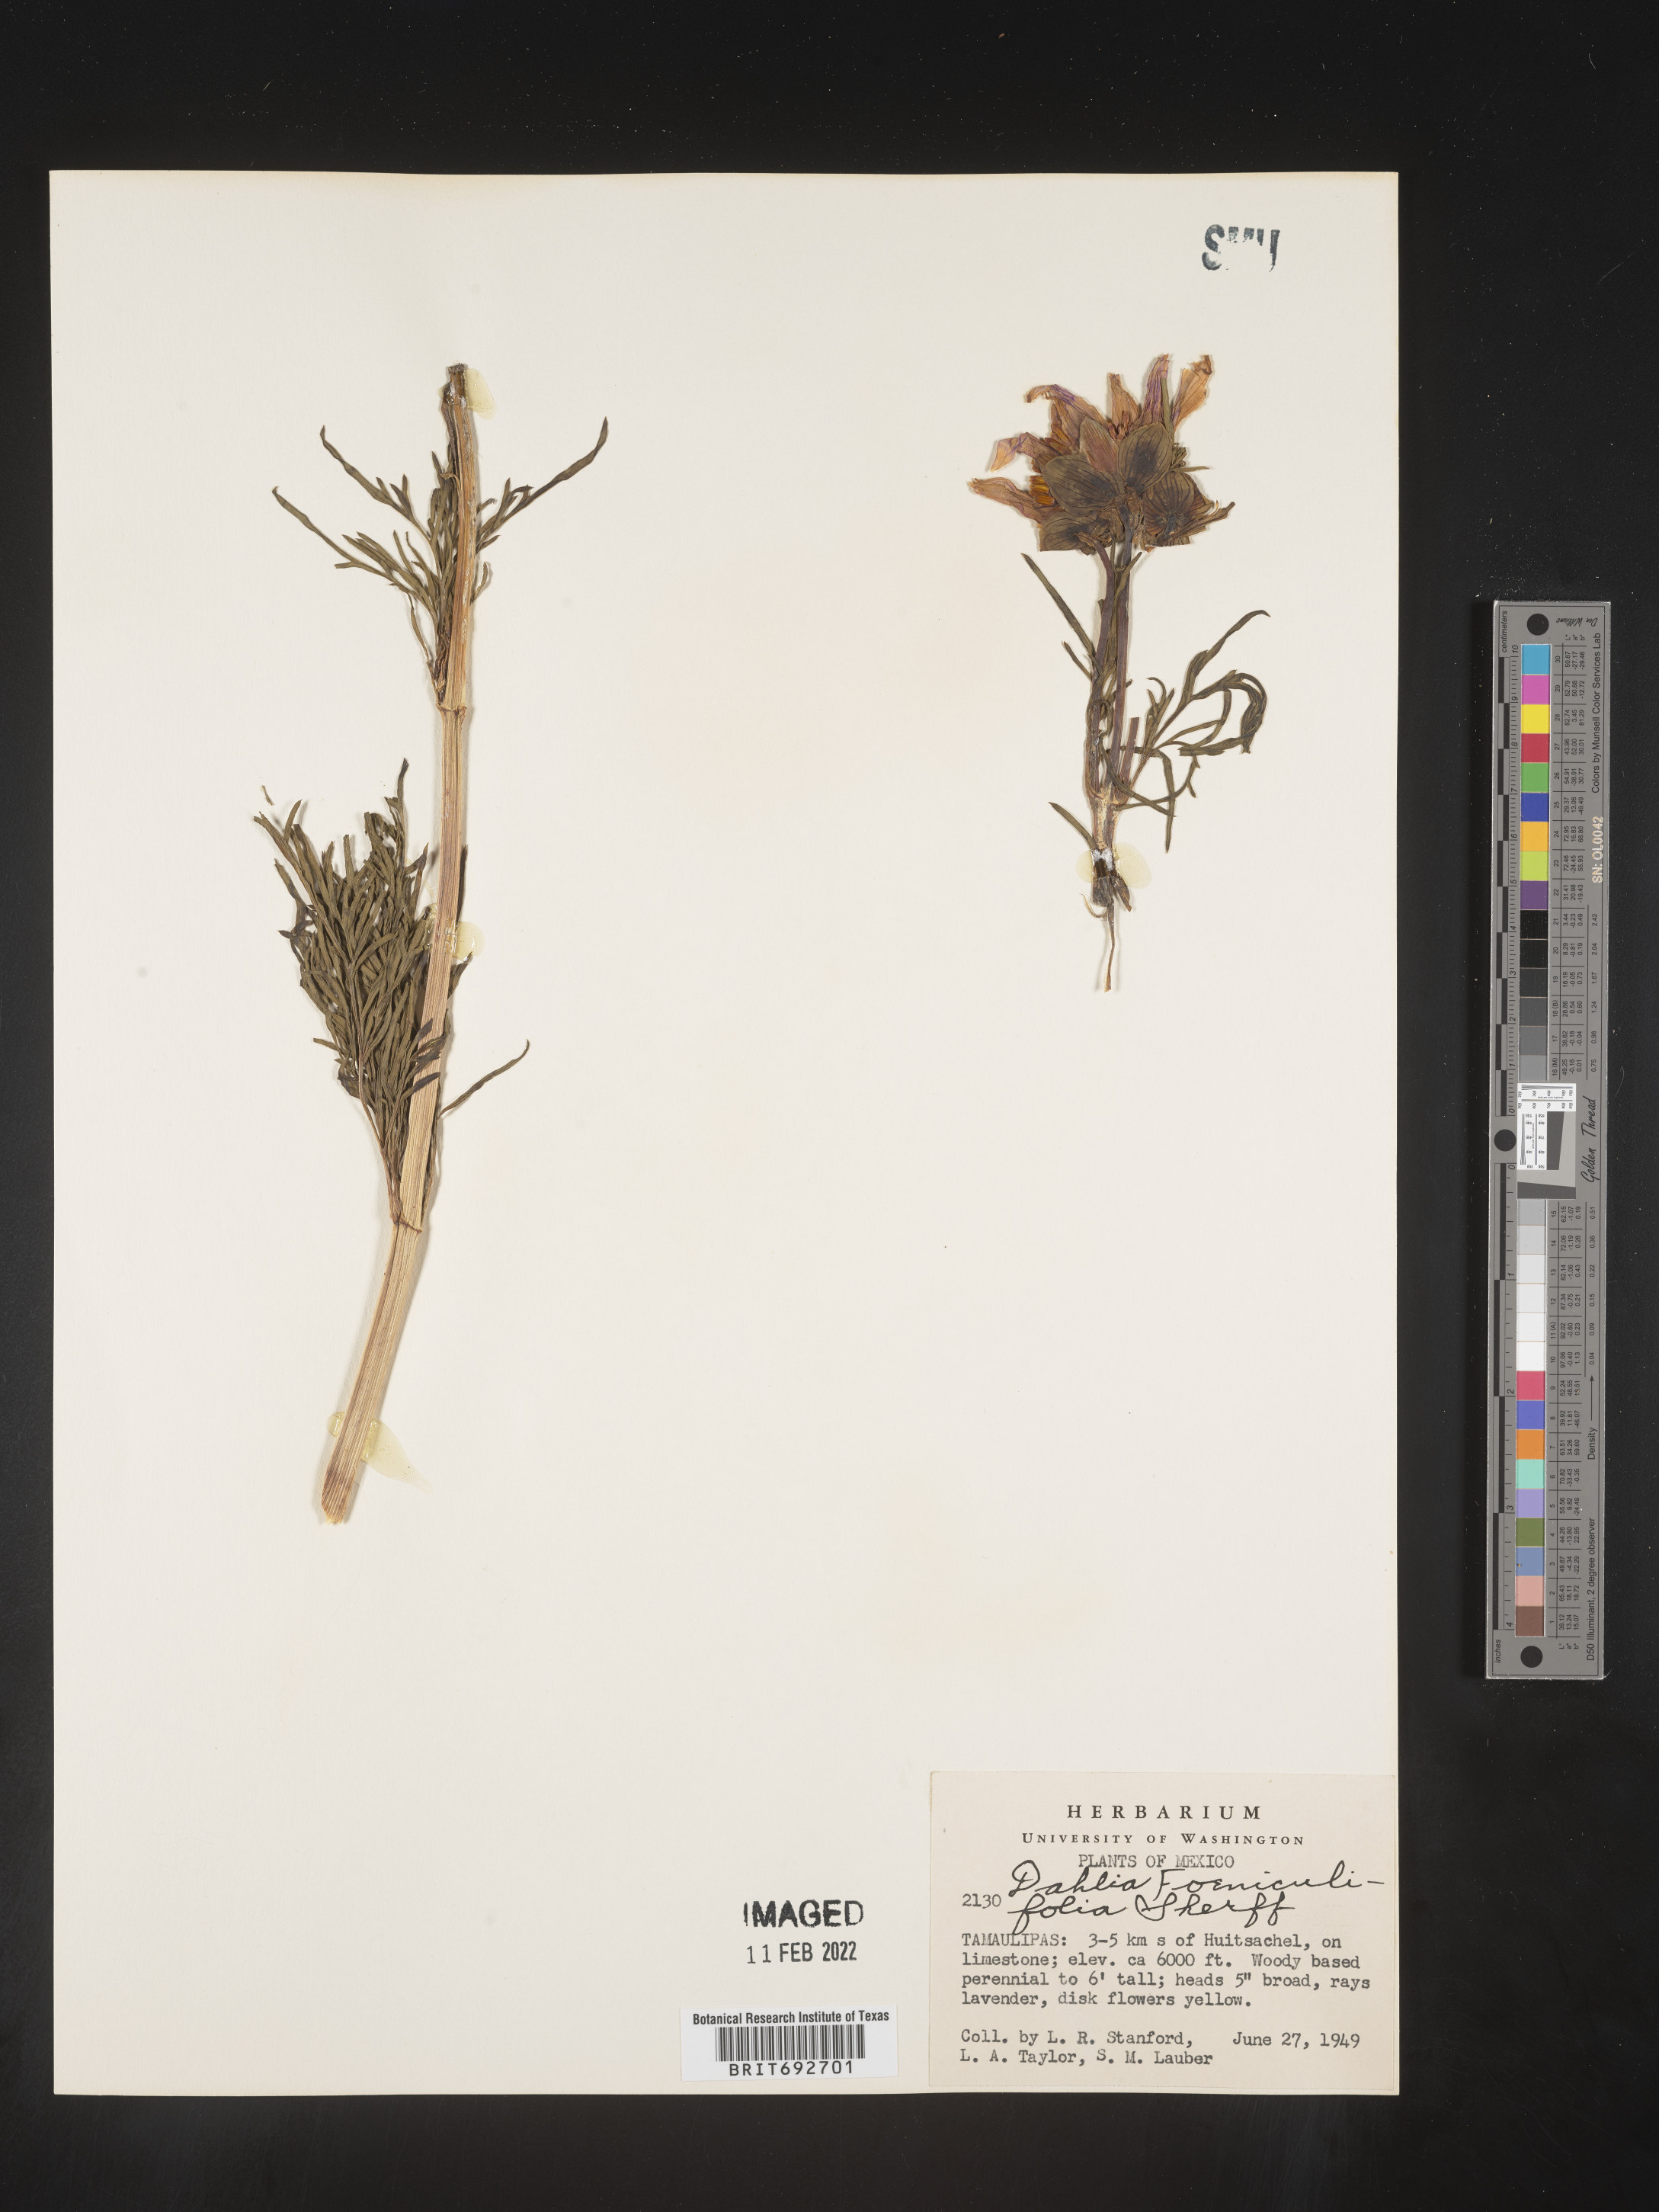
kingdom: Plantae
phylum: Tracheophyta
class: Magnoliopsida
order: Asterales
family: Asteraceae
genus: Dahlia
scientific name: Dahlia
